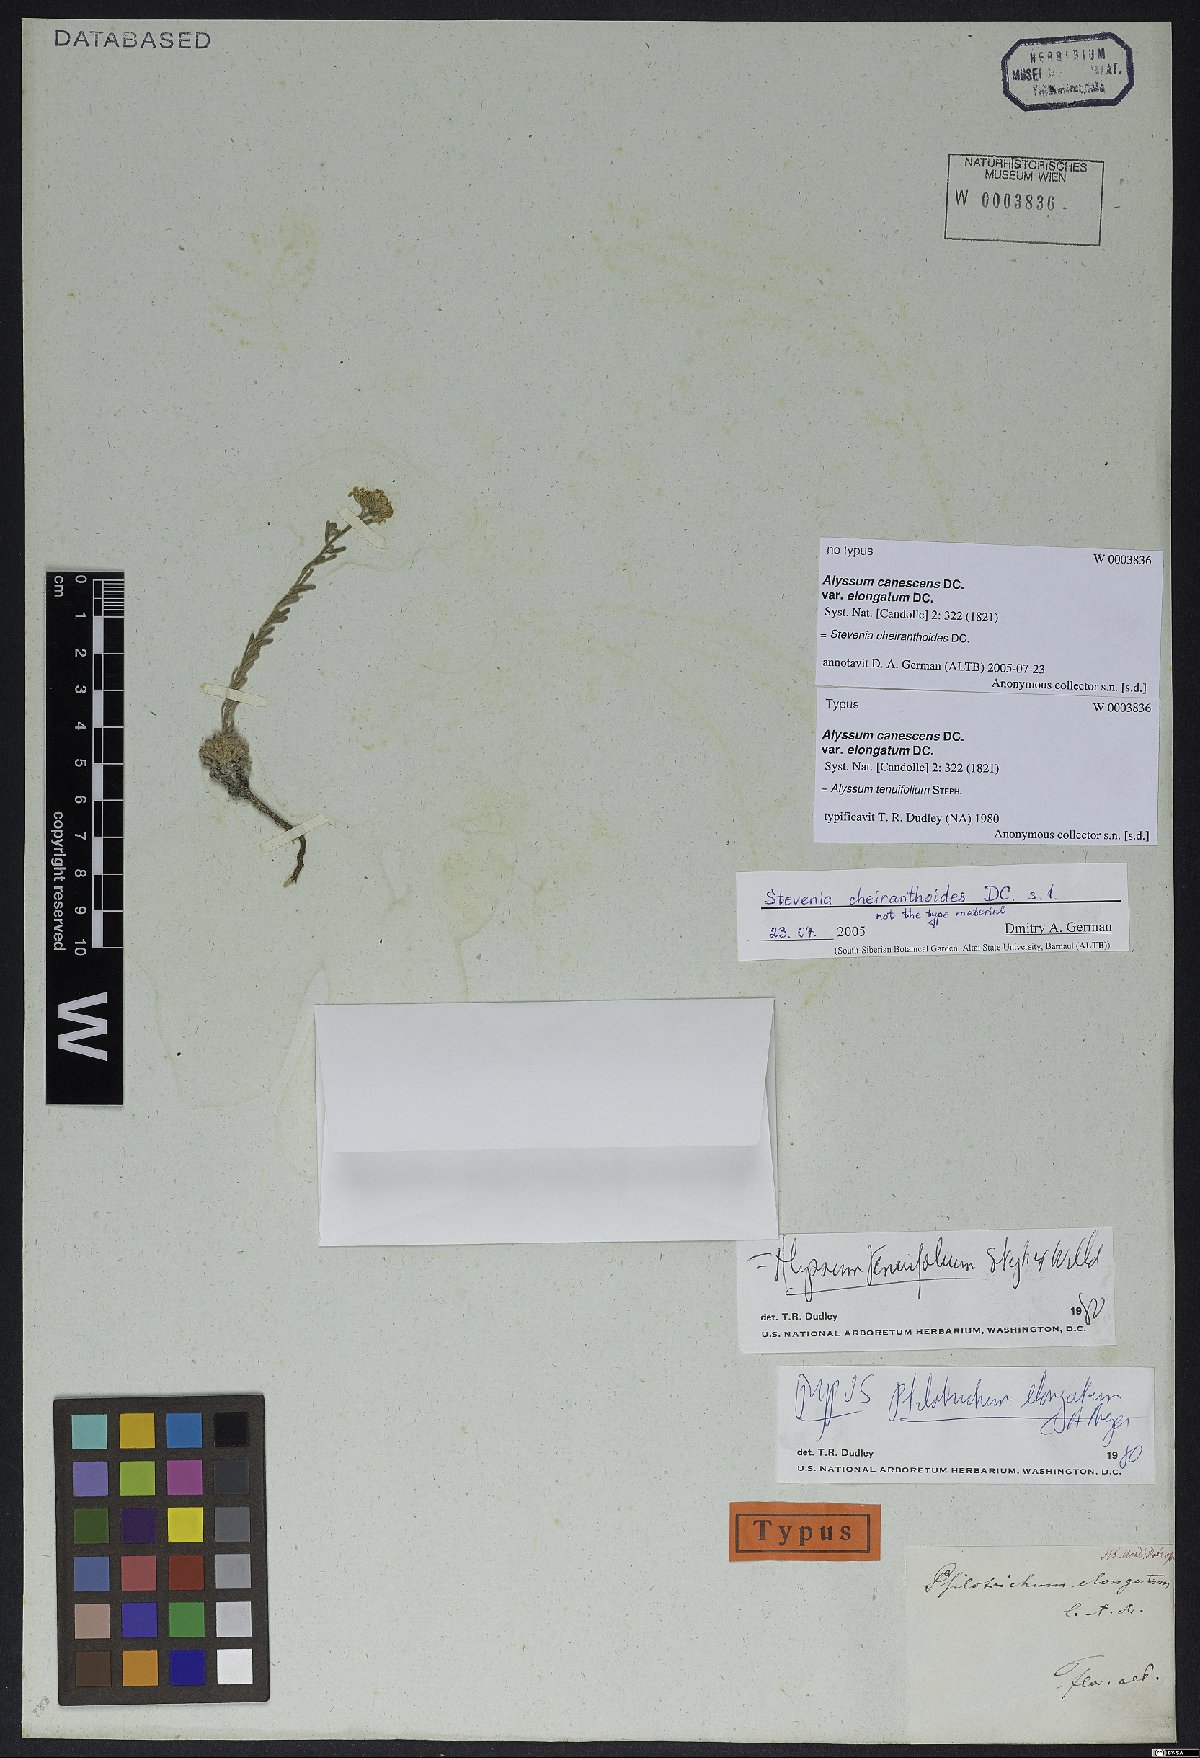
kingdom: Plantae
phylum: Tracheophyta
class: Magnoliopsida
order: Brassicales
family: Brassicaceae
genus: Stevenia
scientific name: Stevenia cheiranthoides
